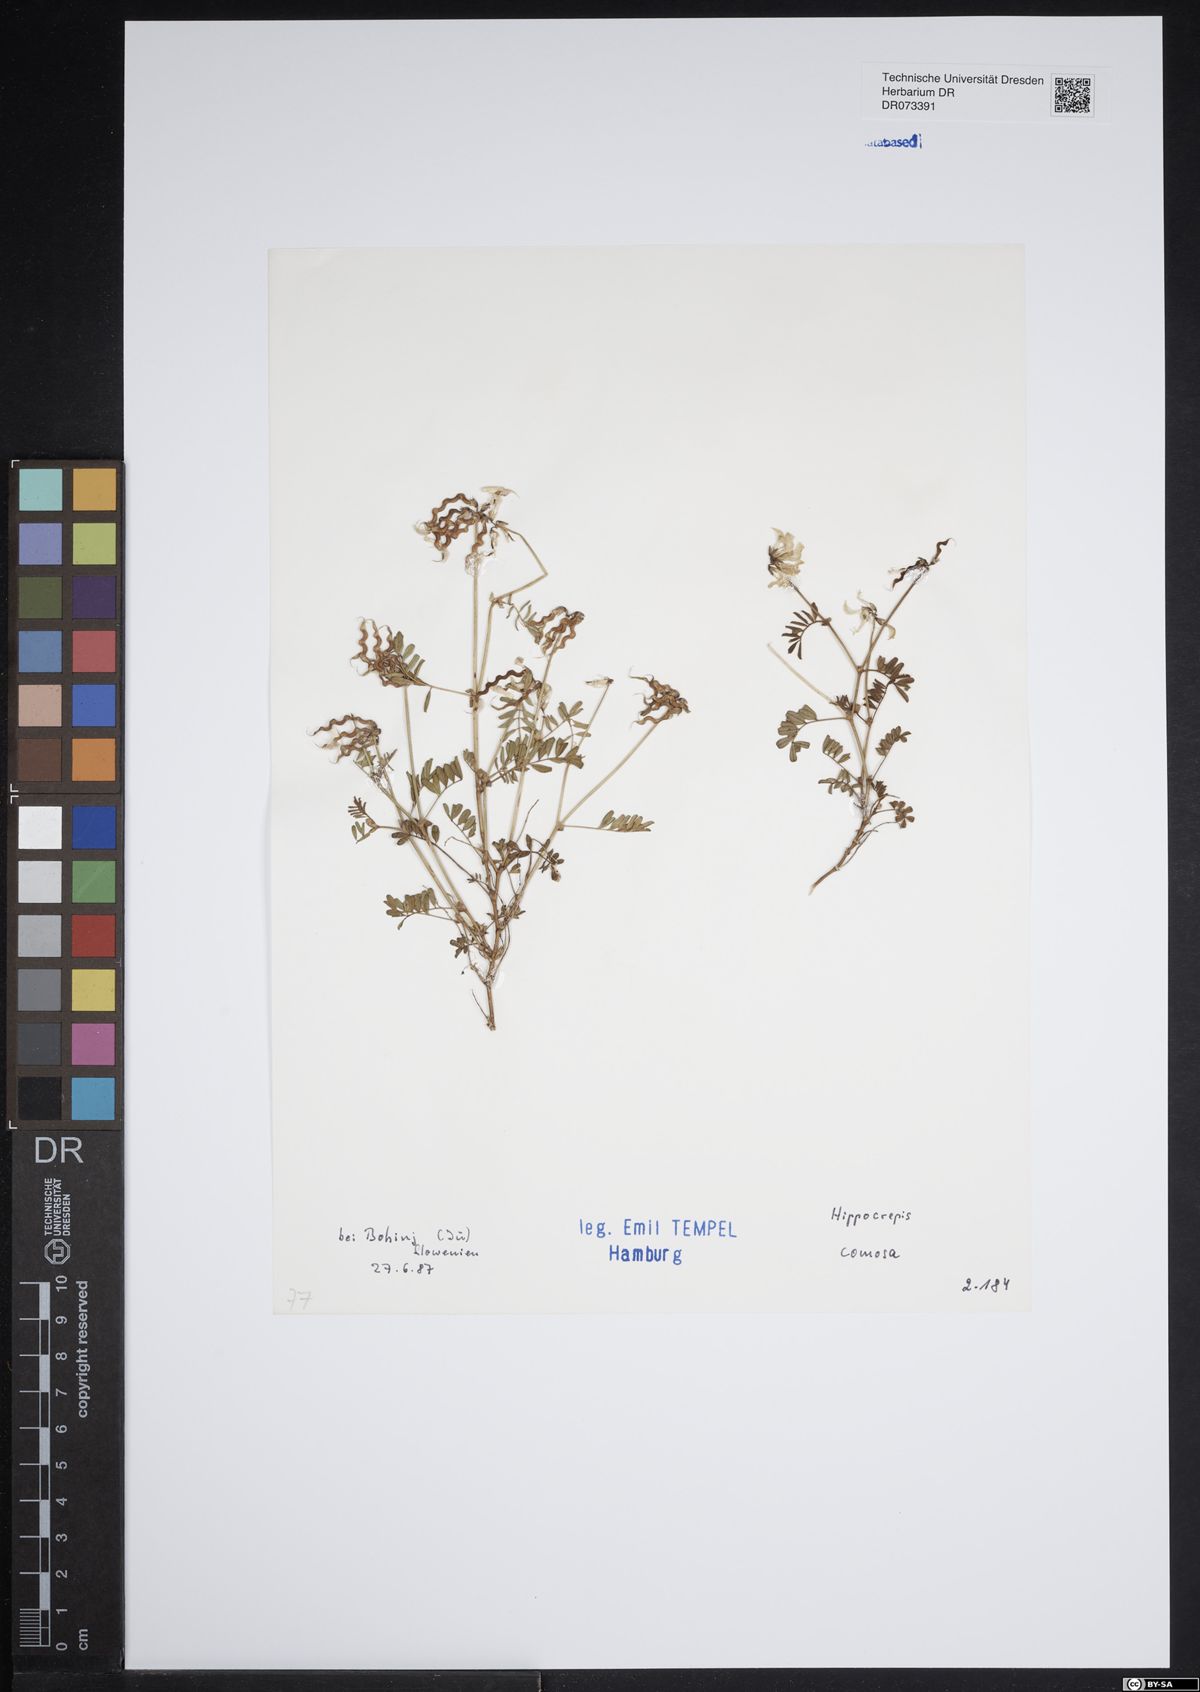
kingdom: Plantae
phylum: Tracheophyta
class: Magnoliopsida
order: Fabales
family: Fabaceae
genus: Hippocrepis
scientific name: Hippocrepis comosa
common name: Horseshoe vetch
